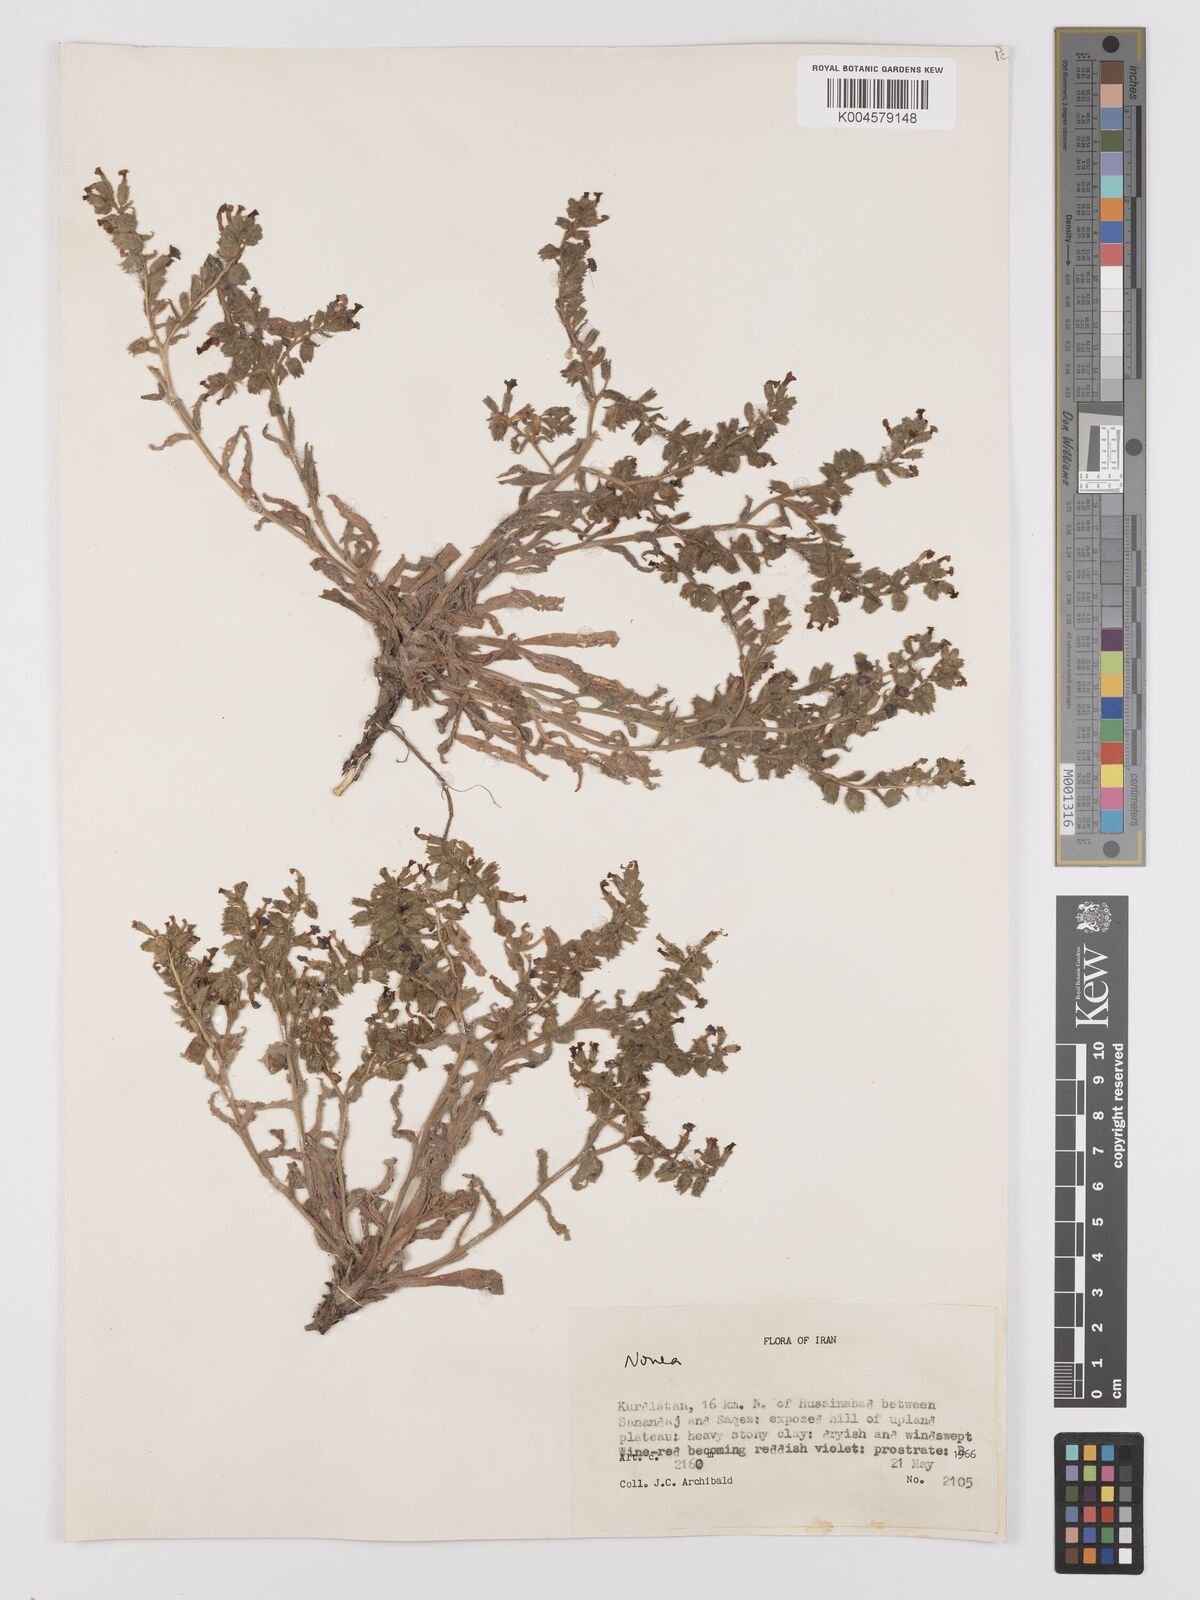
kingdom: Plantae
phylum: Tracheophyta
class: Magnoliopsida
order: Boraginales
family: Boraginaceae
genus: Nonea
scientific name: Nonea
